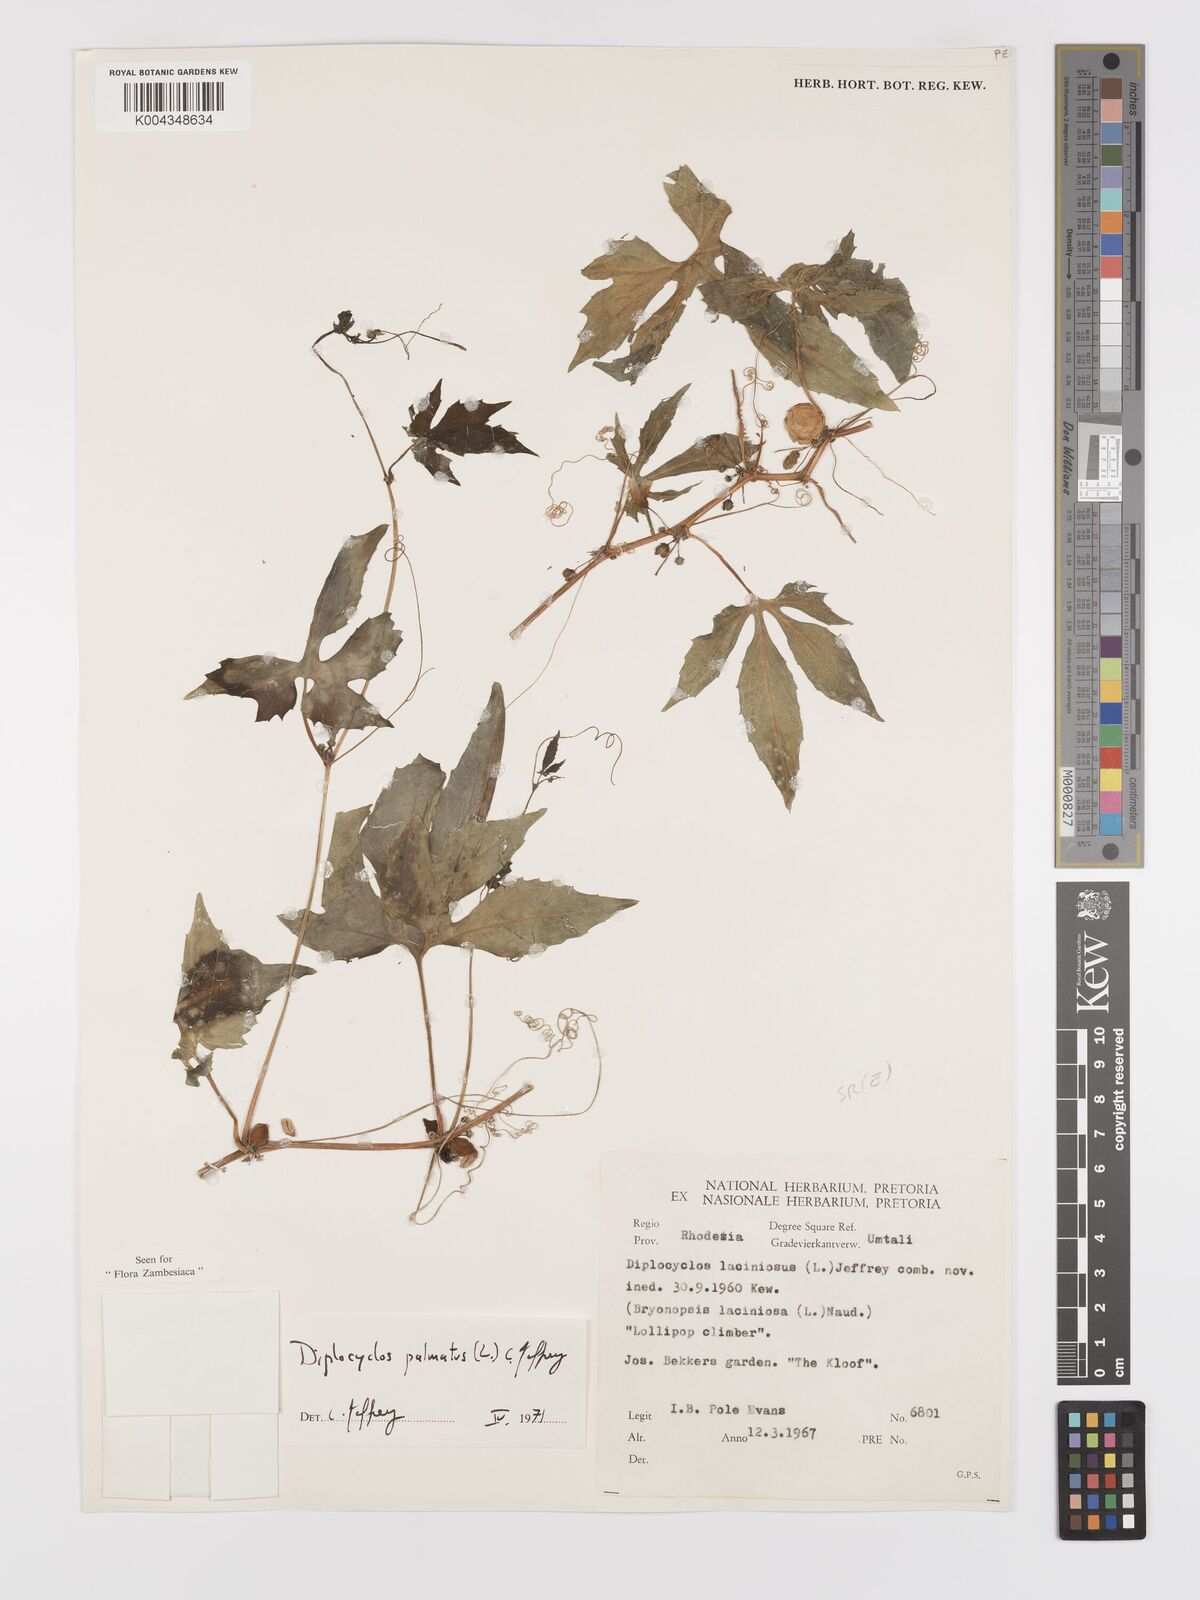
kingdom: Plantae
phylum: Tracheophyta
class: Magnoliopsida
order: Cucurbitales
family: Cucurbitaceae
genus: Diplocyclos
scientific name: Diplocyclos palmatus
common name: Striped-cucumber
